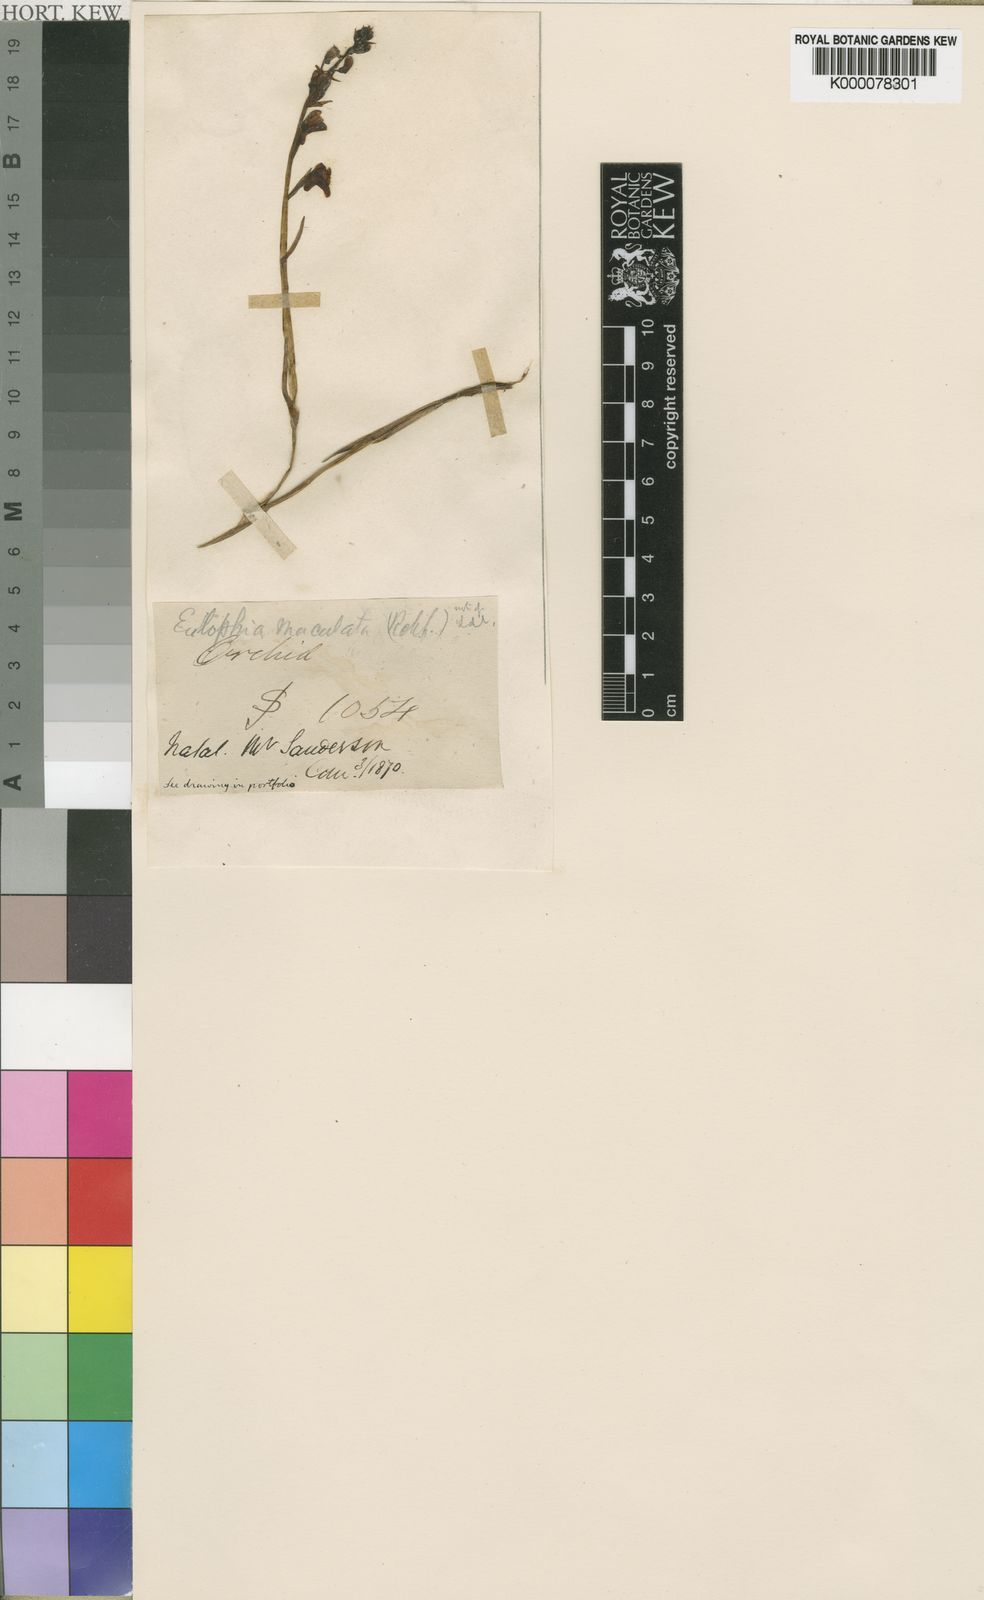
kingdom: Plantae
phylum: Tracheophyta
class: Liliopsida
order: Asparagales
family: Orchidaceae
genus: Eulophia
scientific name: Eulophia maculata
